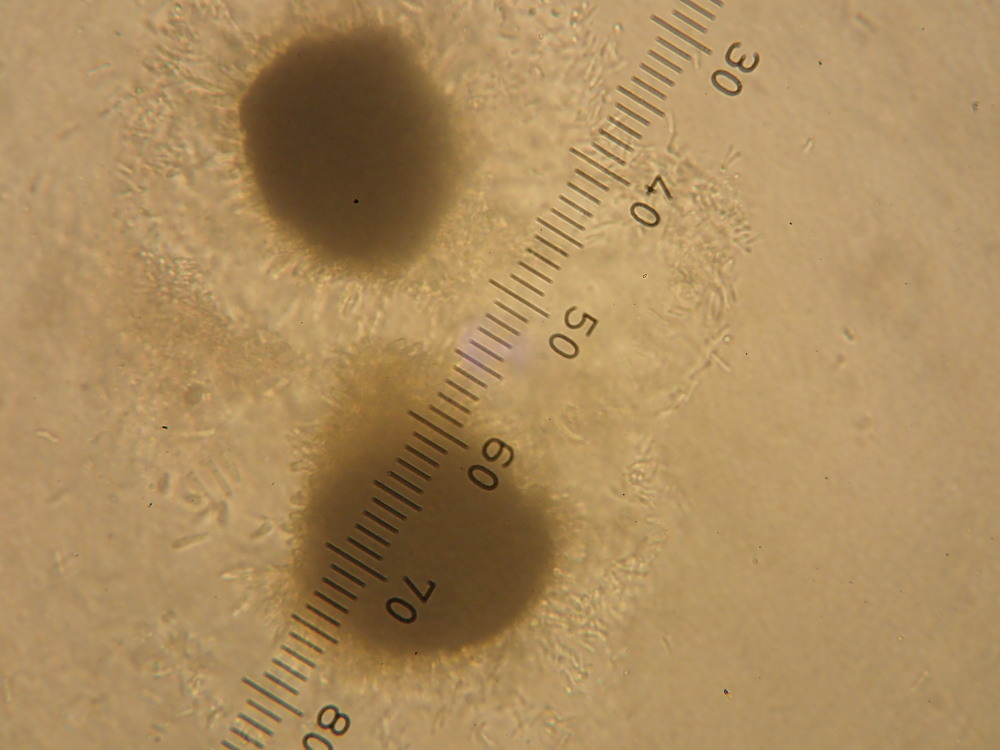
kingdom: Fungi
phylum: Ascomycota
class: Leotiomycetes
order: Rhytismatales
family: Rhytismataceae
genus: Rhytisma
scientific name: Rhytisma acerinum
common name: ahorn-rynkeplet
